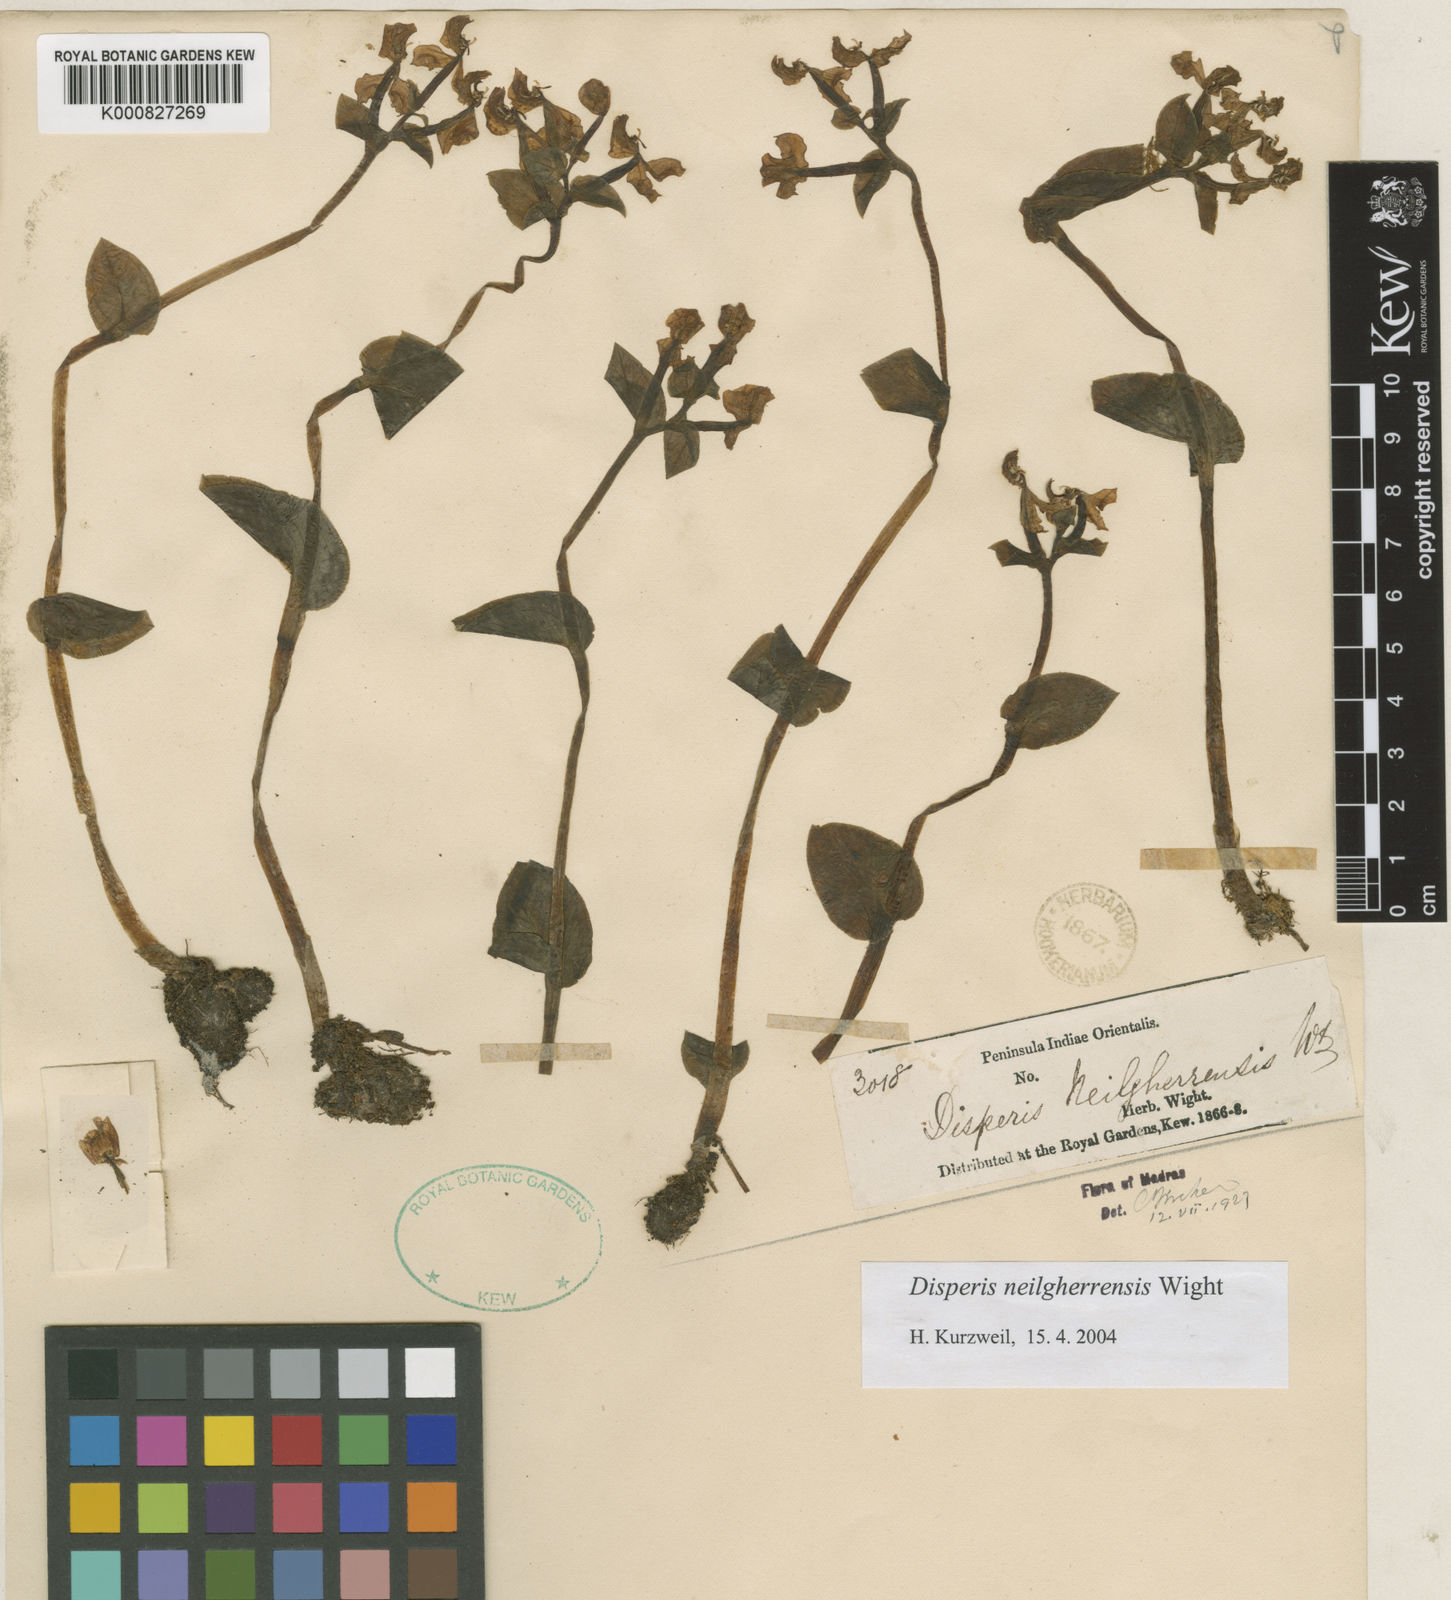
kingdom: Plantae
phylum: Tracheophyta
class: Liliopsida
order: Asparagales
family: Orchidaceae
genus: Disperis
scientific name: Disperis neilgherrensis
